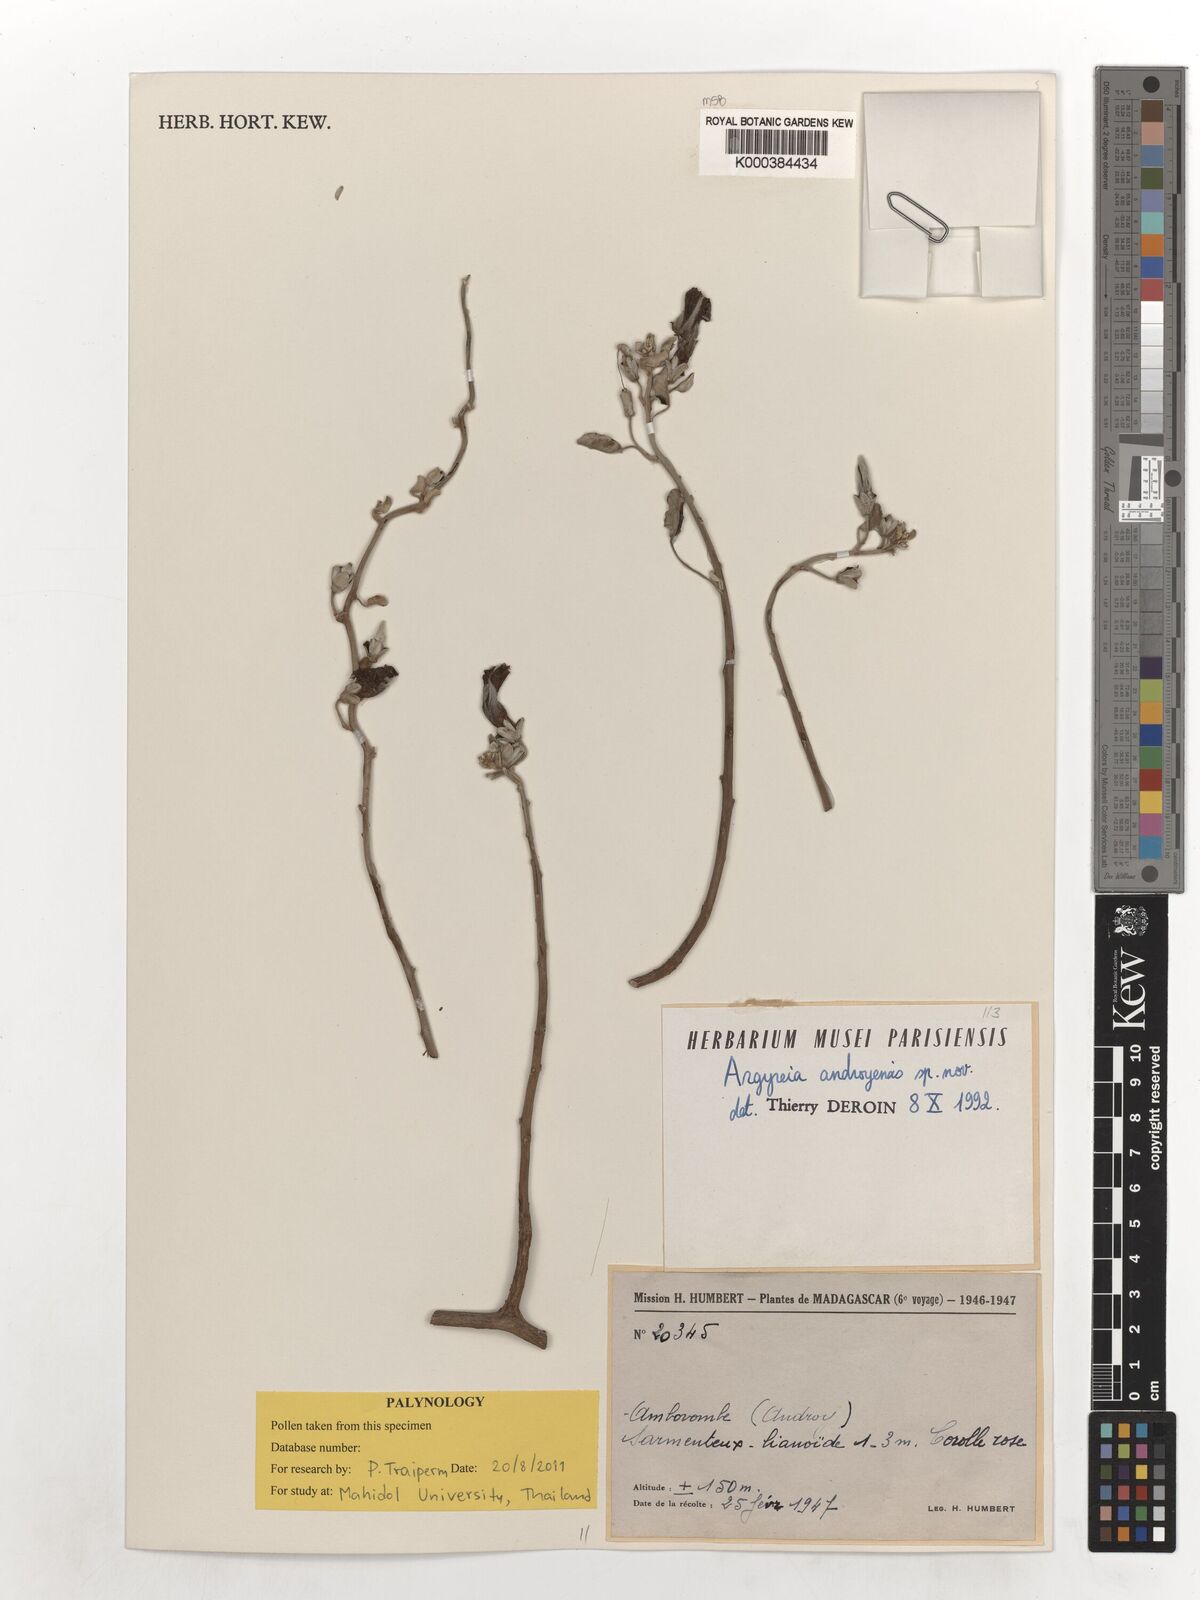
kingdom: Plantae
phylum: Tracheophyta
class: Magnoliopsida
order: Solanales
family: Convolvulaceae
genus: Argyreia
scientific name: Argyreia androyensis
